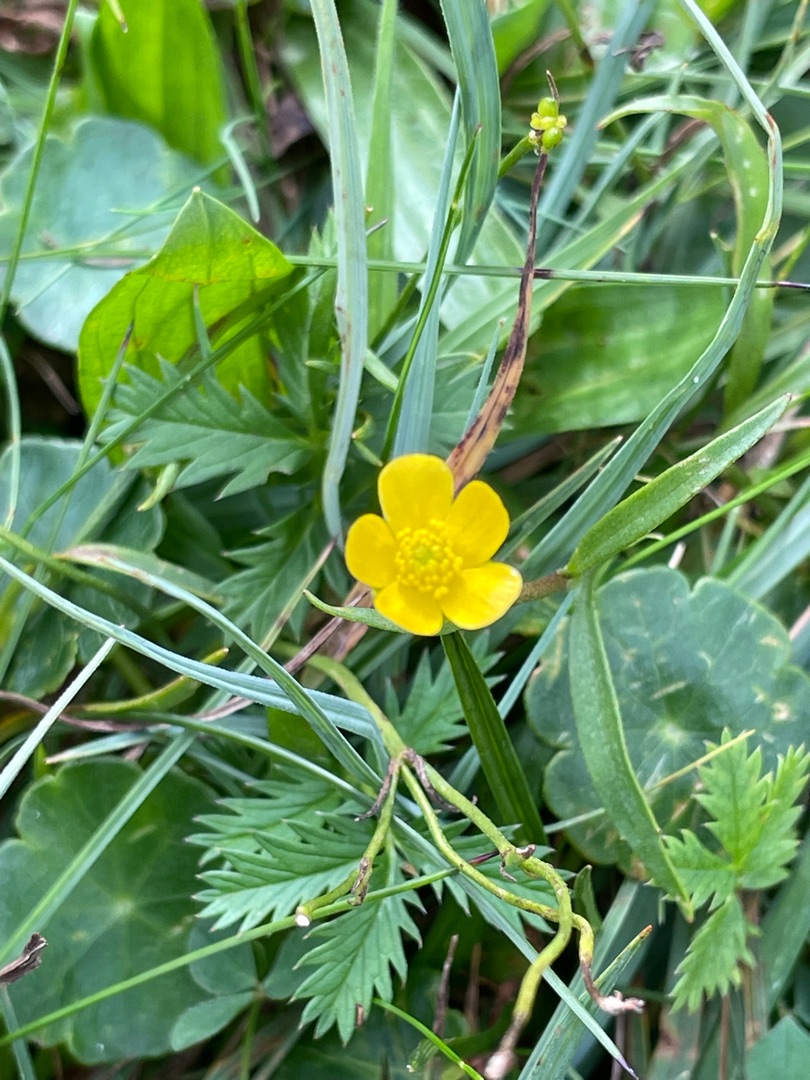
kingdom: Plantae
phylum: Tracheophyta
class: Magnoliopsida
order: Ranunculales
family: Ranunculaceae
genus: Ranunculus
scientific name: Ranunculus
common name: Ranunkelslægten
